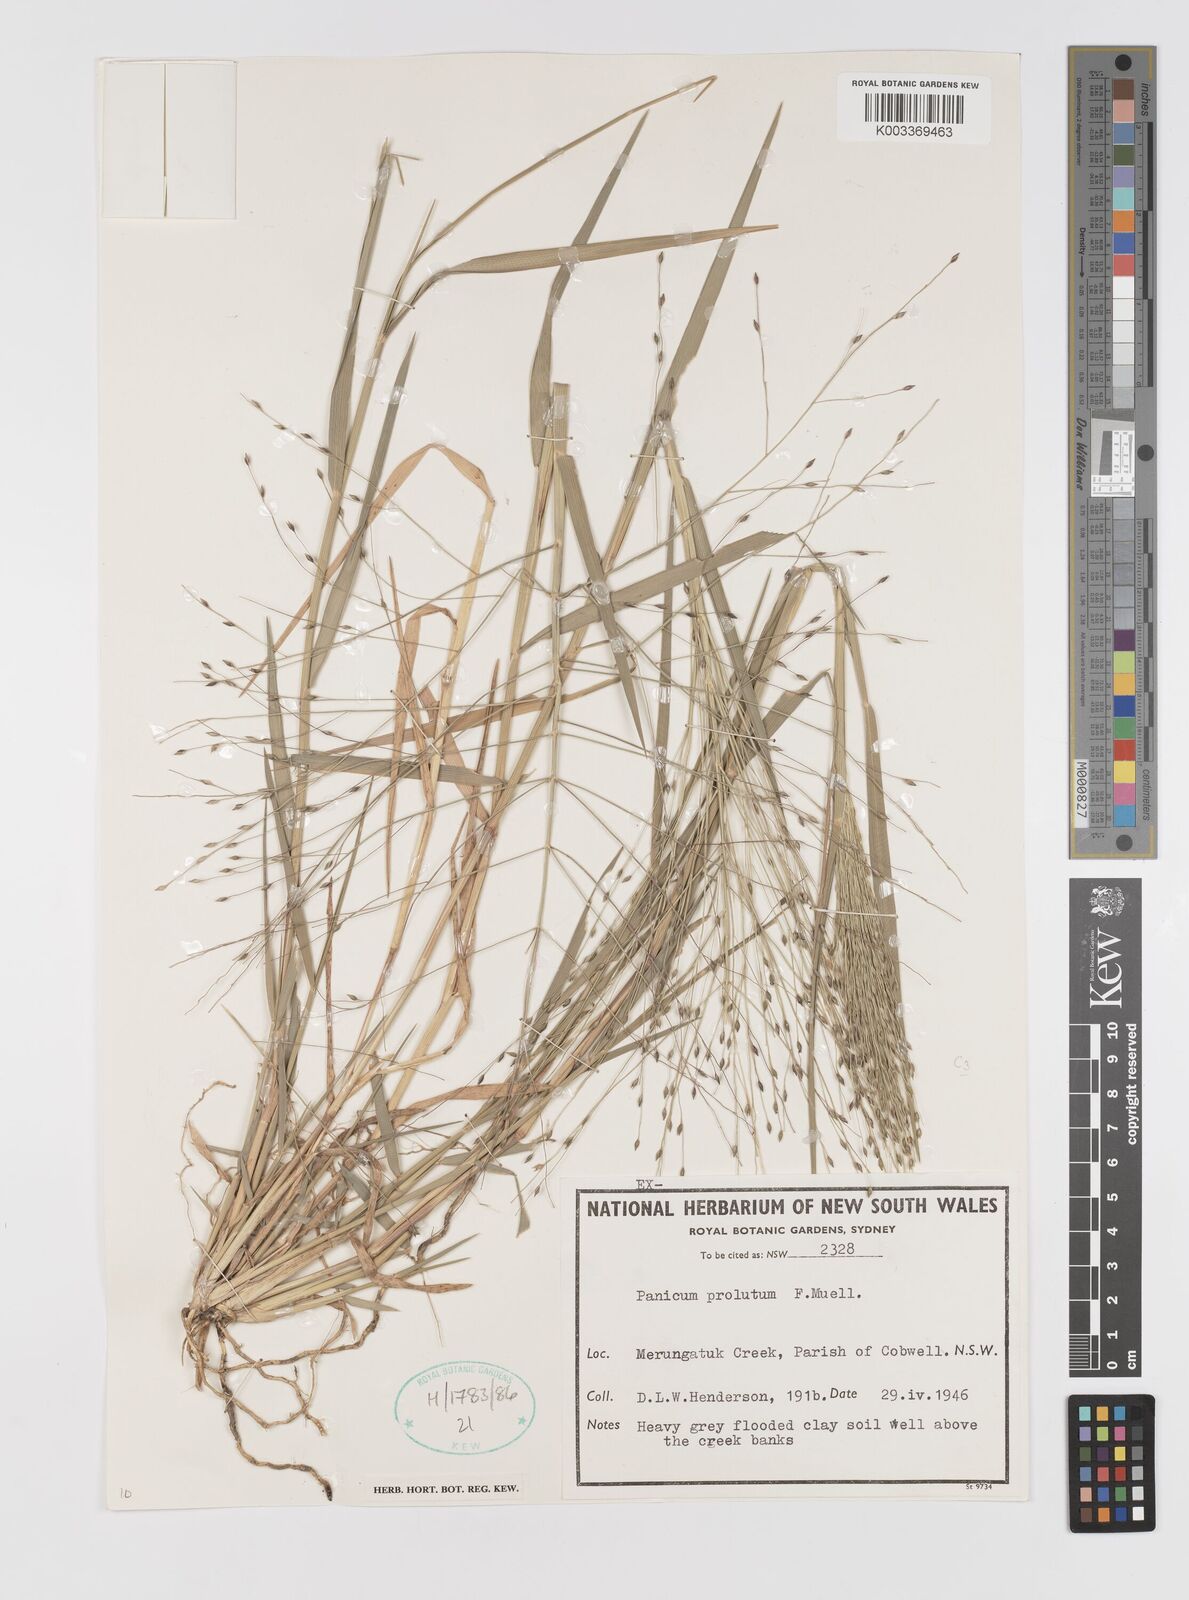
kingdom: Plantae
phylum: Tracheophyta
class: Liliopsida
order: Poales
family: Poaceae
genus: Walwhalleya
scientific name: Walwhalleya proluta
